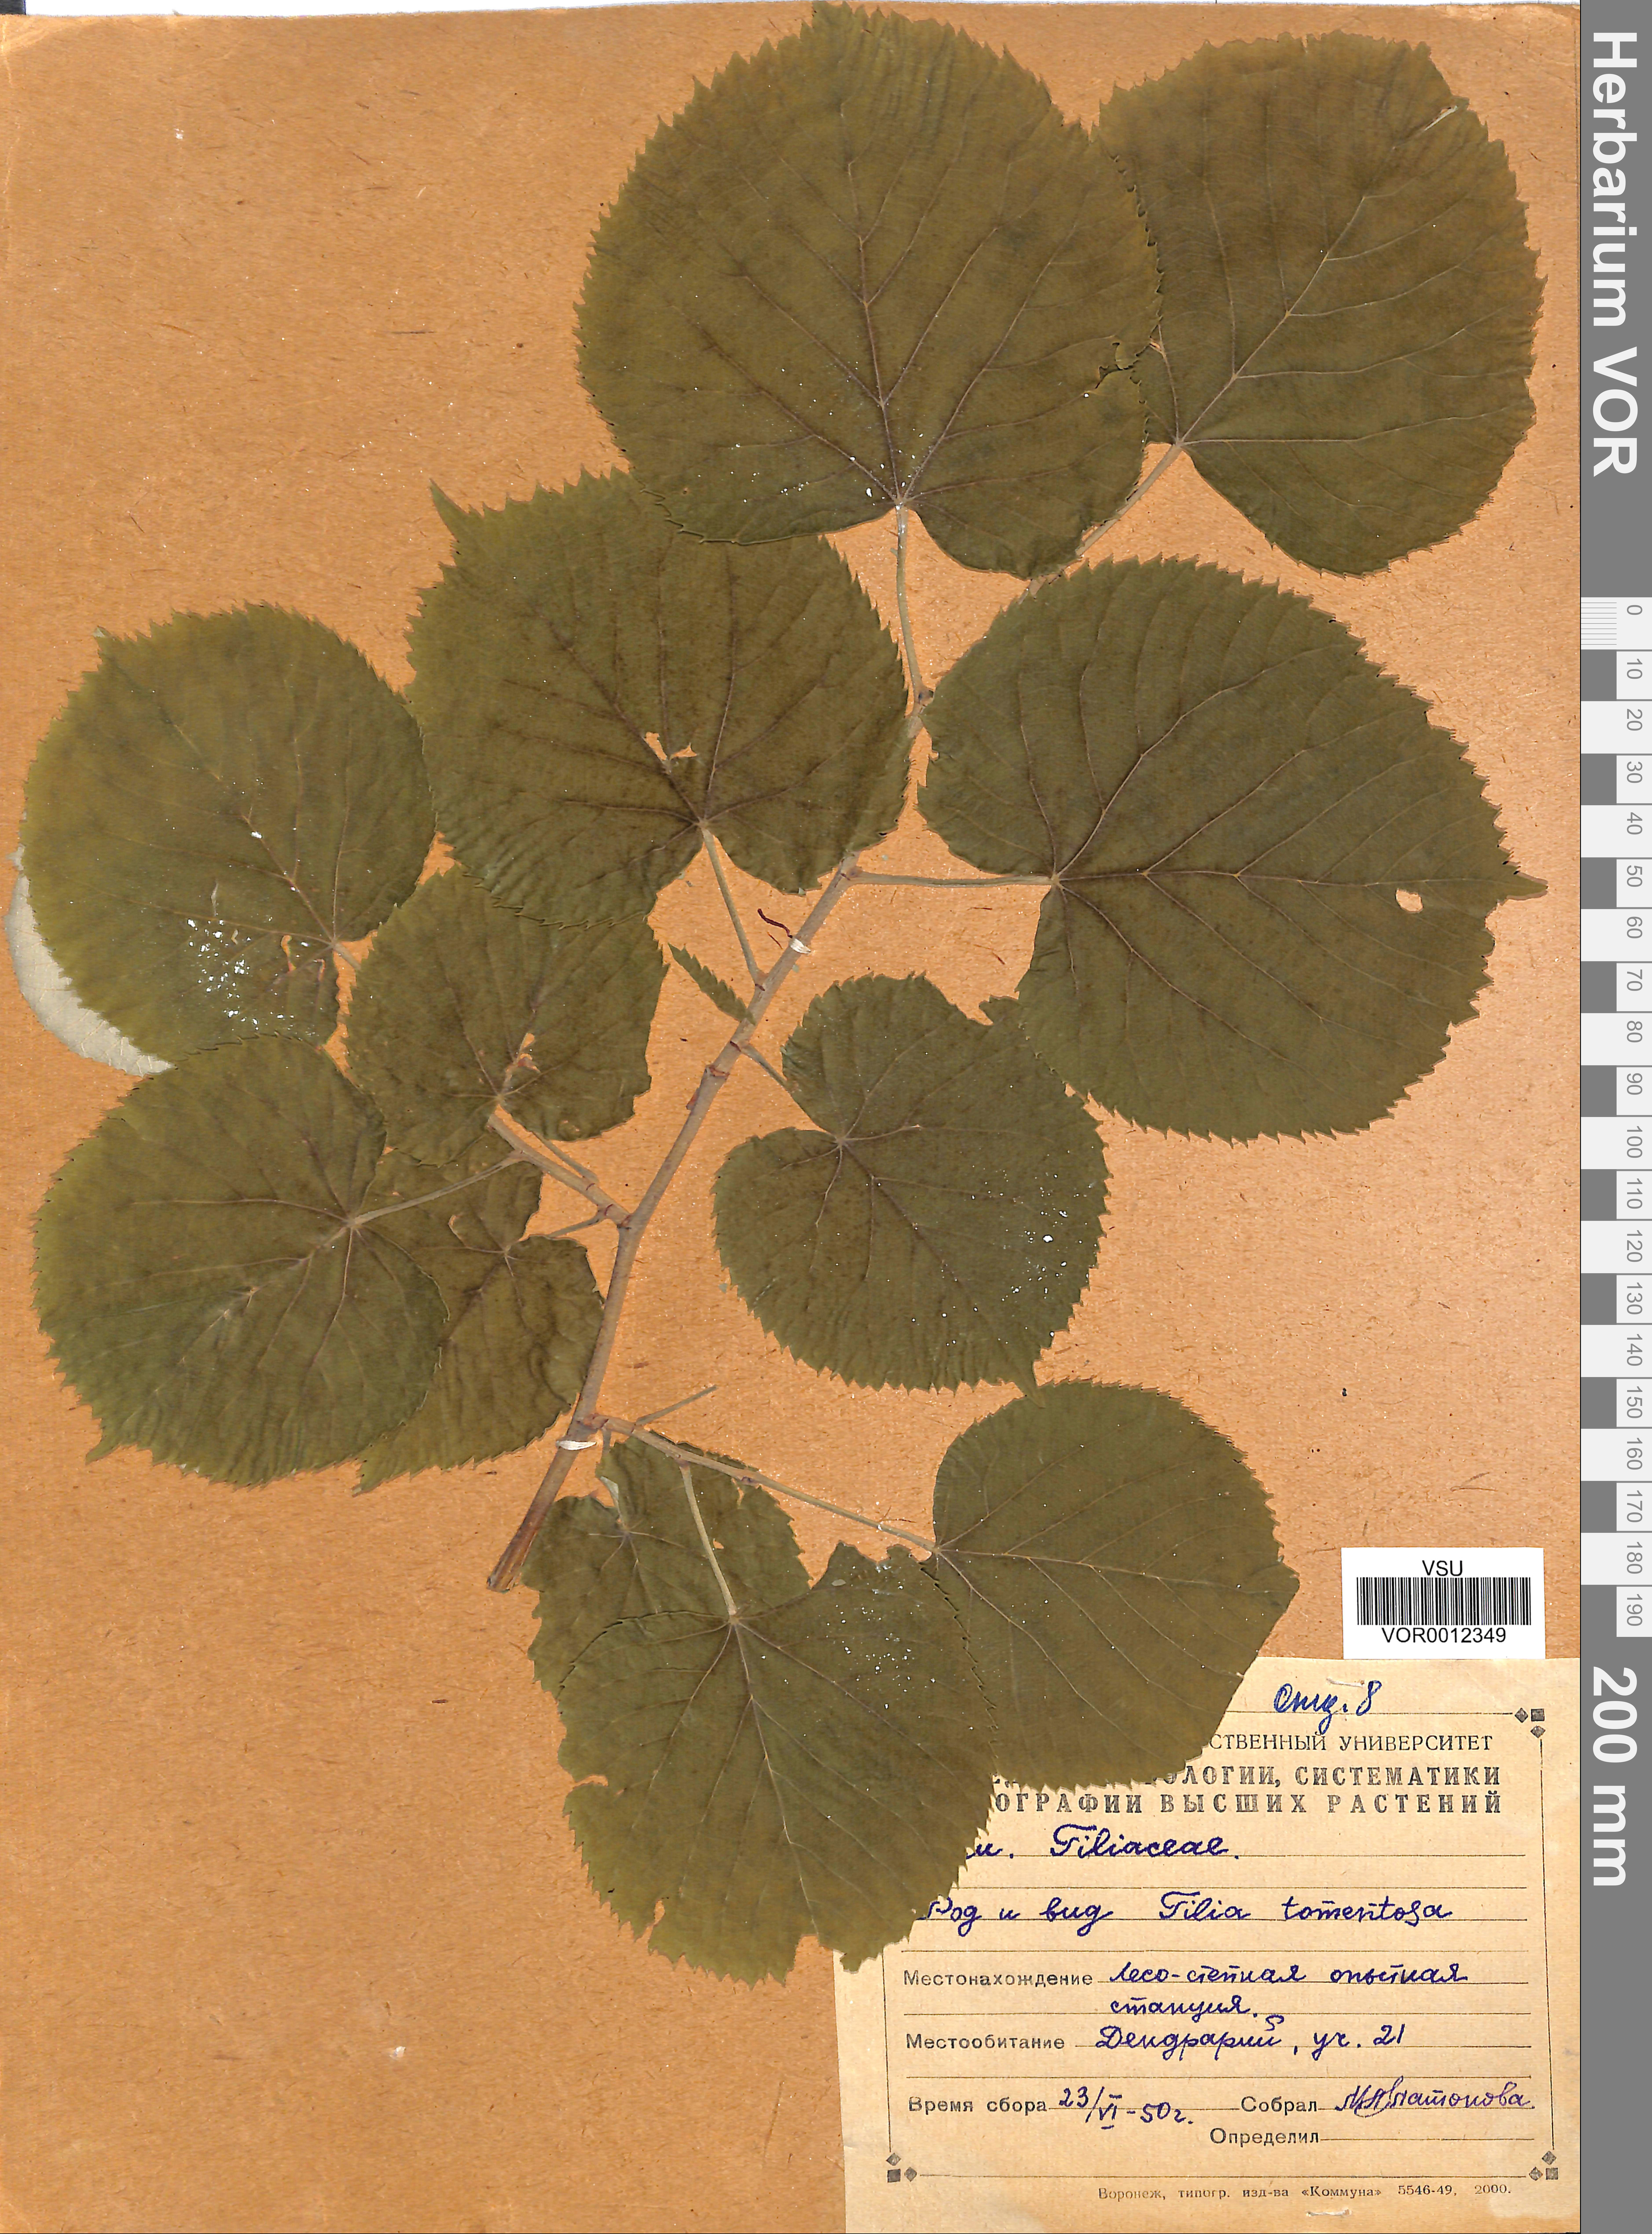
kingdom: Plantae
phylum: Tracheophyta
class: Magnoliopsida
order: Malvales
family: Malvaceae
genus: Tilia
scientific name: Tilia tomentosa
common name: Silver lime
